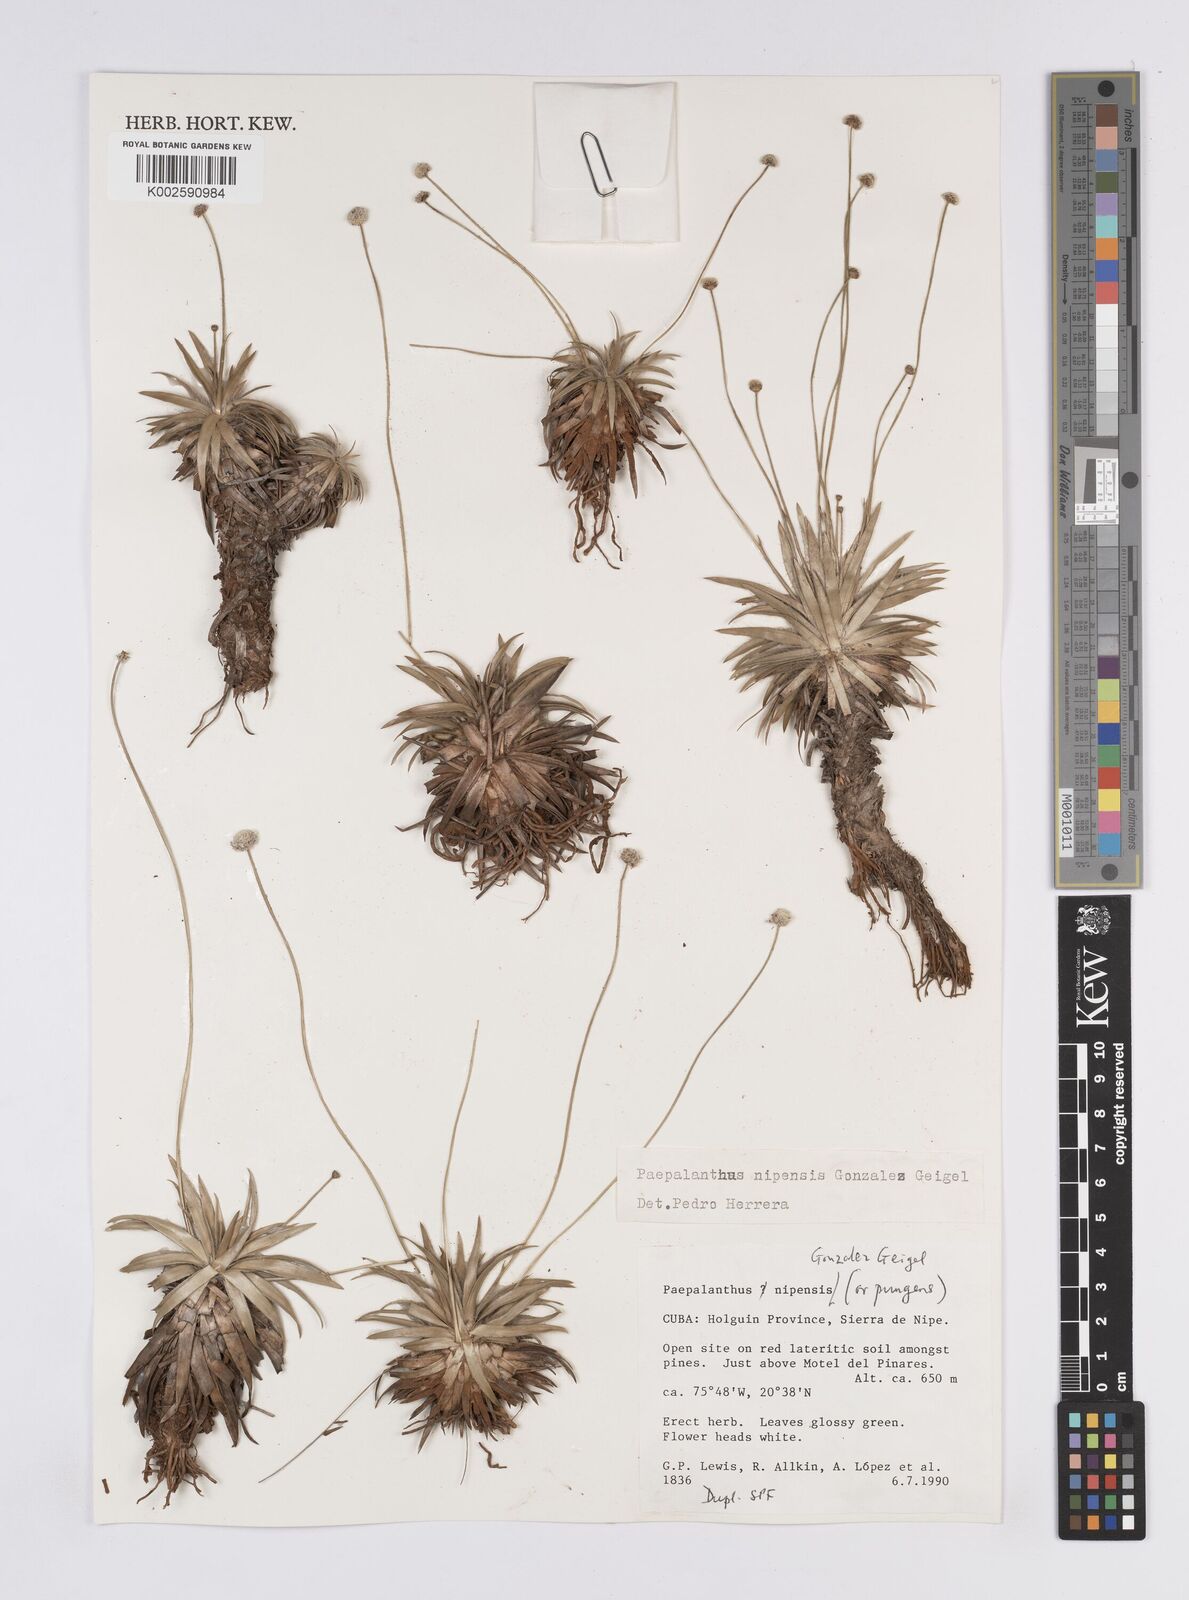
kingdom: Plantae
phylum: Tracheophyta
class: Liliopsida
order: Poales
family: Eriocaulaceae
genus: Paepalanthus
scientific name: Paepalanthus nipensis
